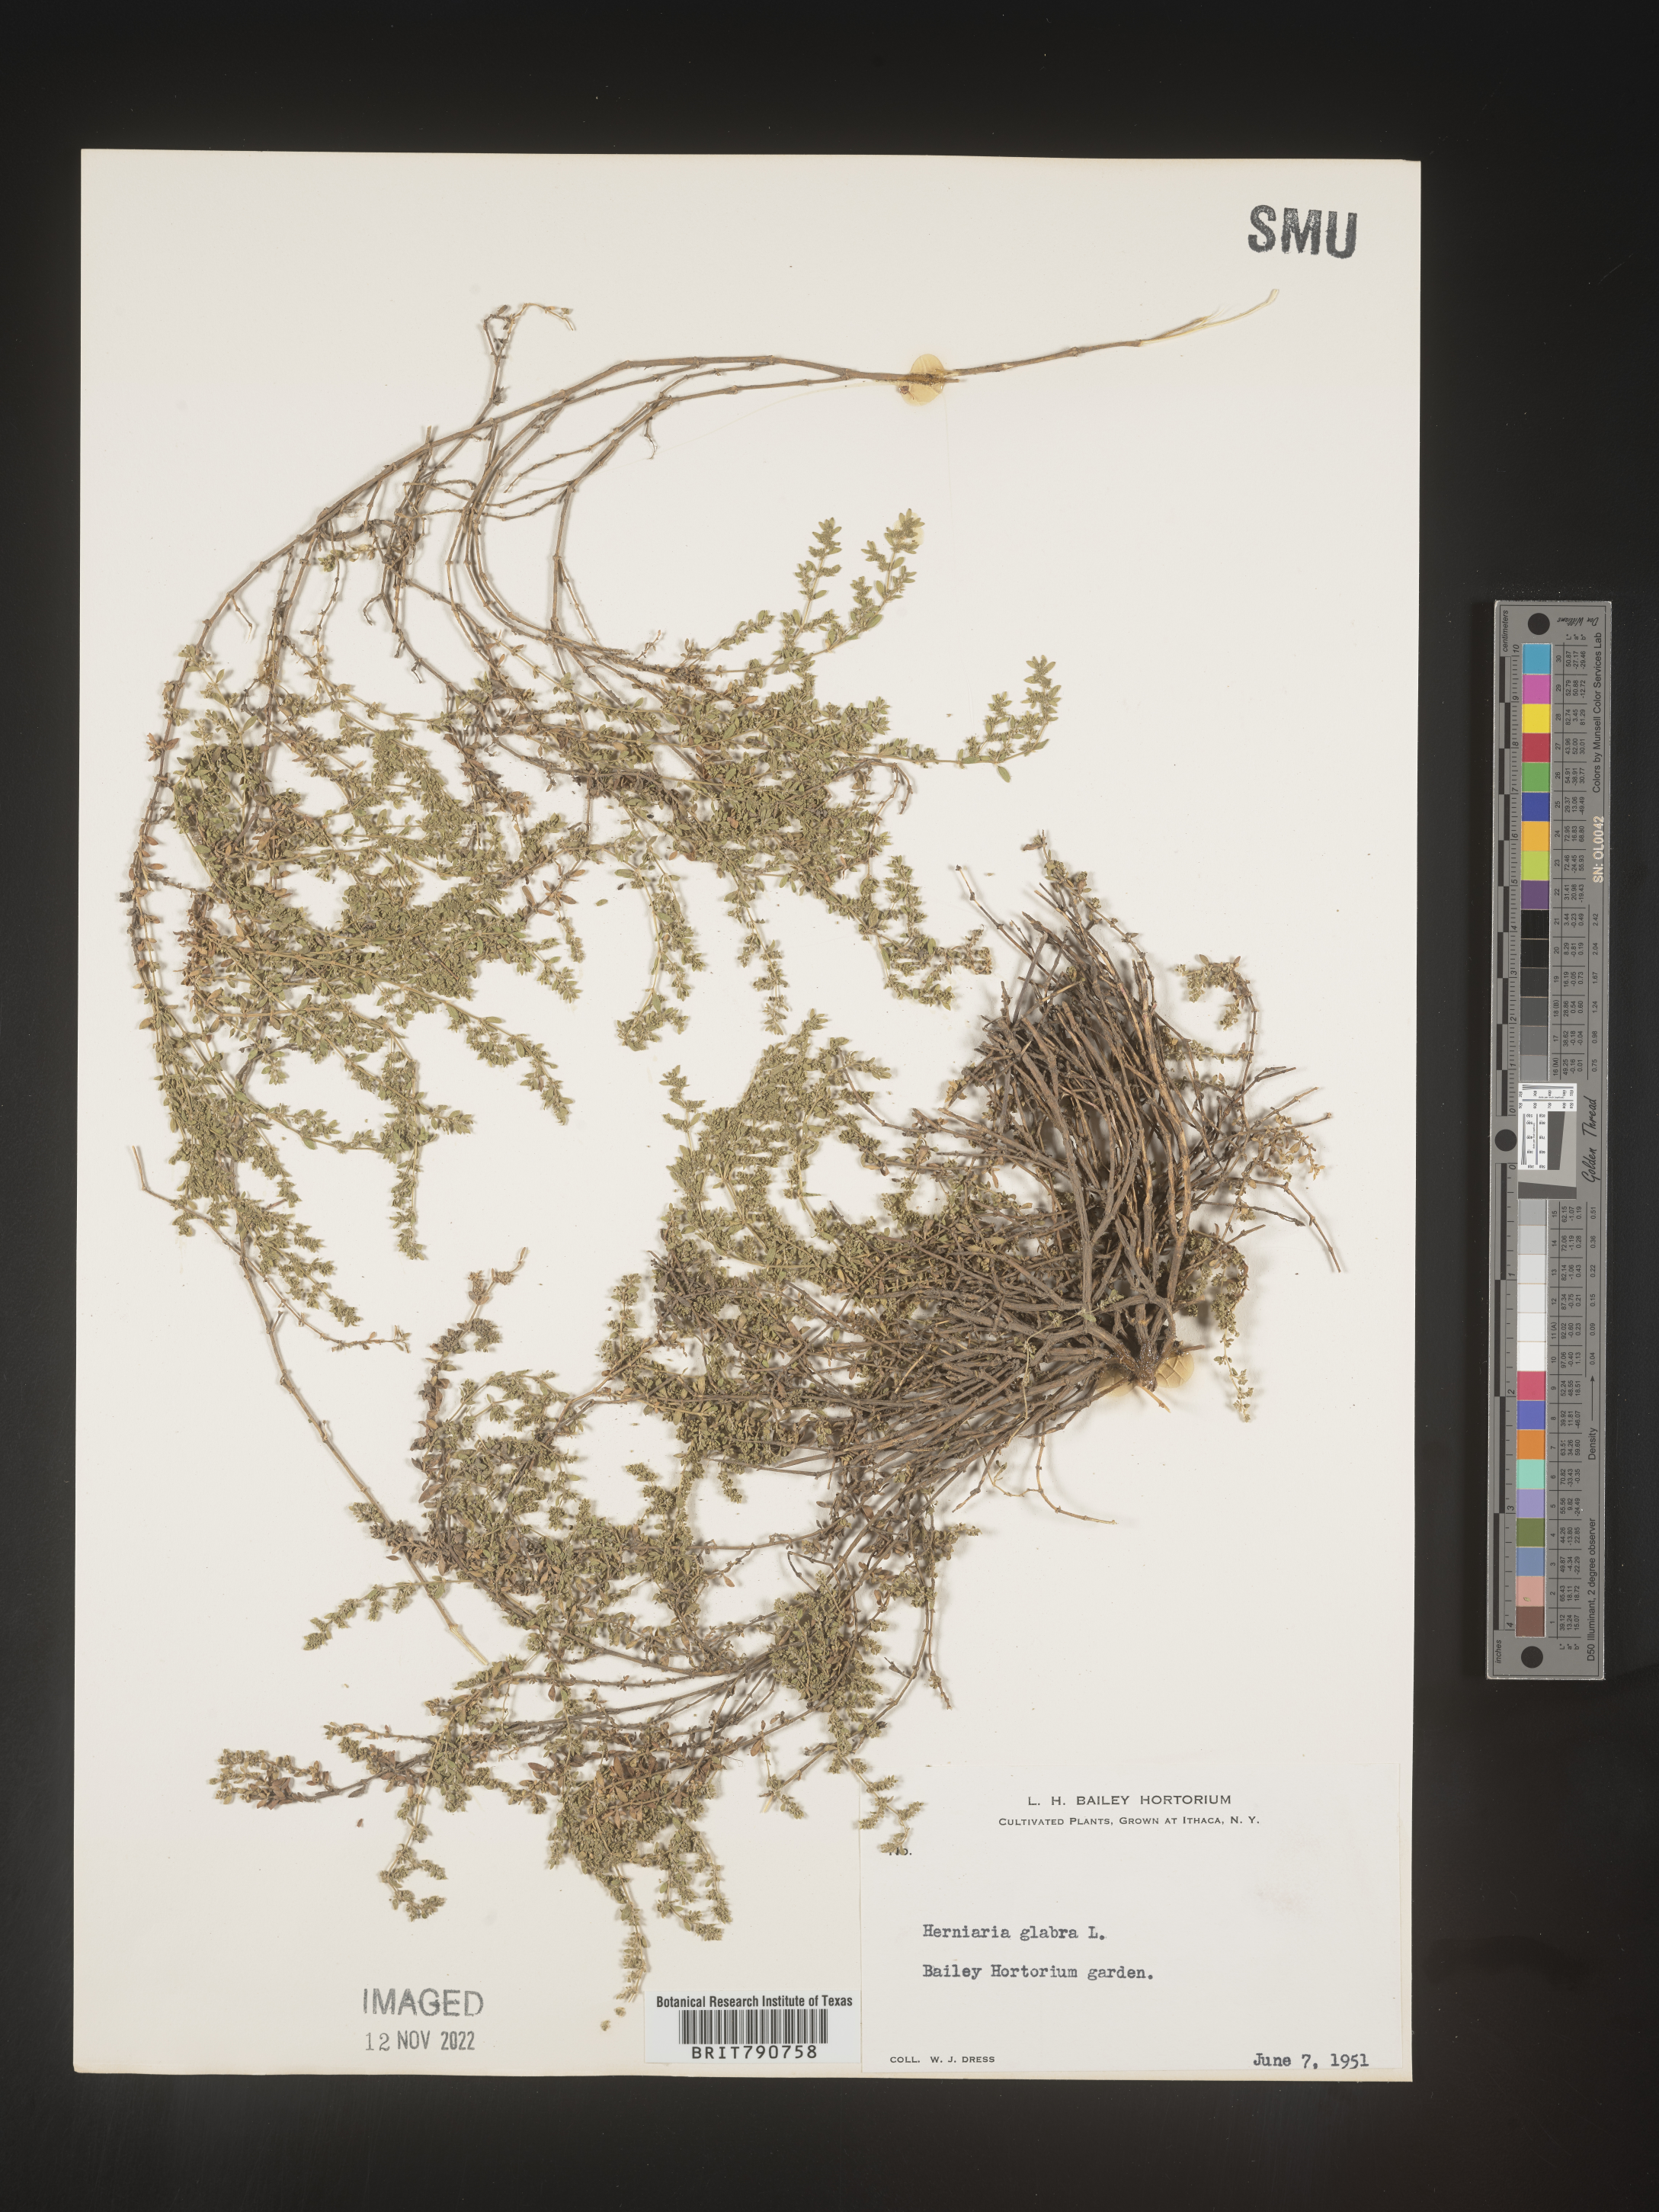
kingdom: Plantae
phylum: Tracheophyta
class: Magnoliopsida
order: Caryophyllales
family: Caryophyllaceae
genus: Herniaria
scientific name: Herniaria
